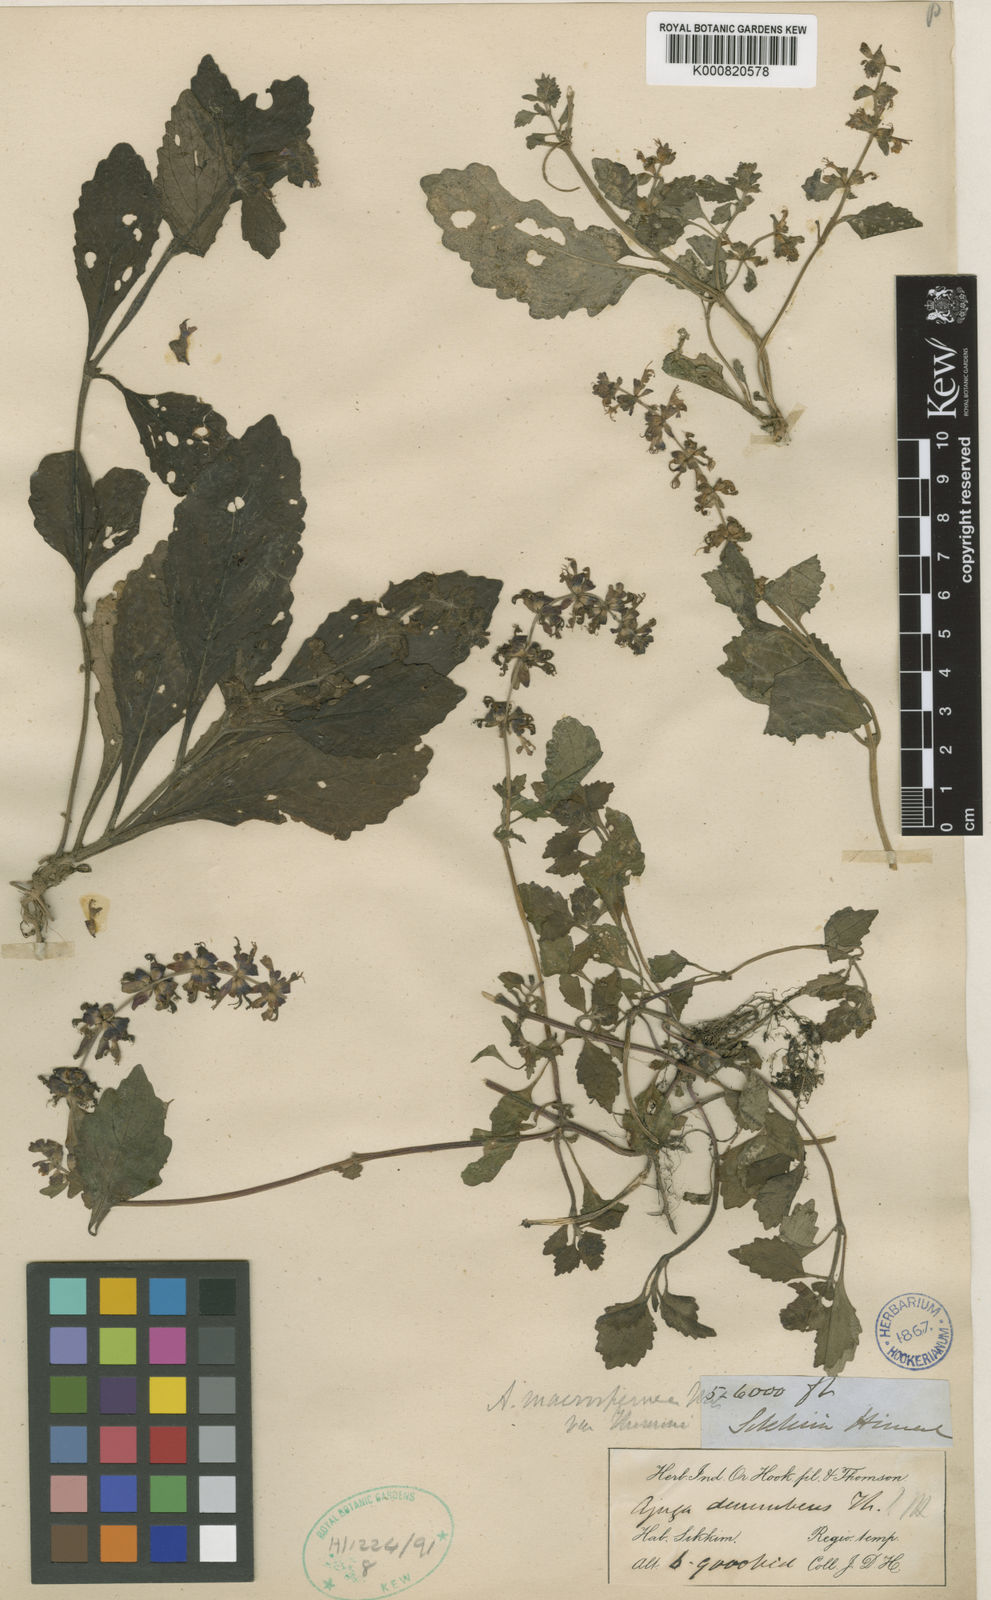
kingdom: Plantae
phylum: Tracheophyta
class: Magnoliopsida
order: Lamiales
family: Lamiaceae
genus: Ajuga
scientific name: Ajuga macrosperma
